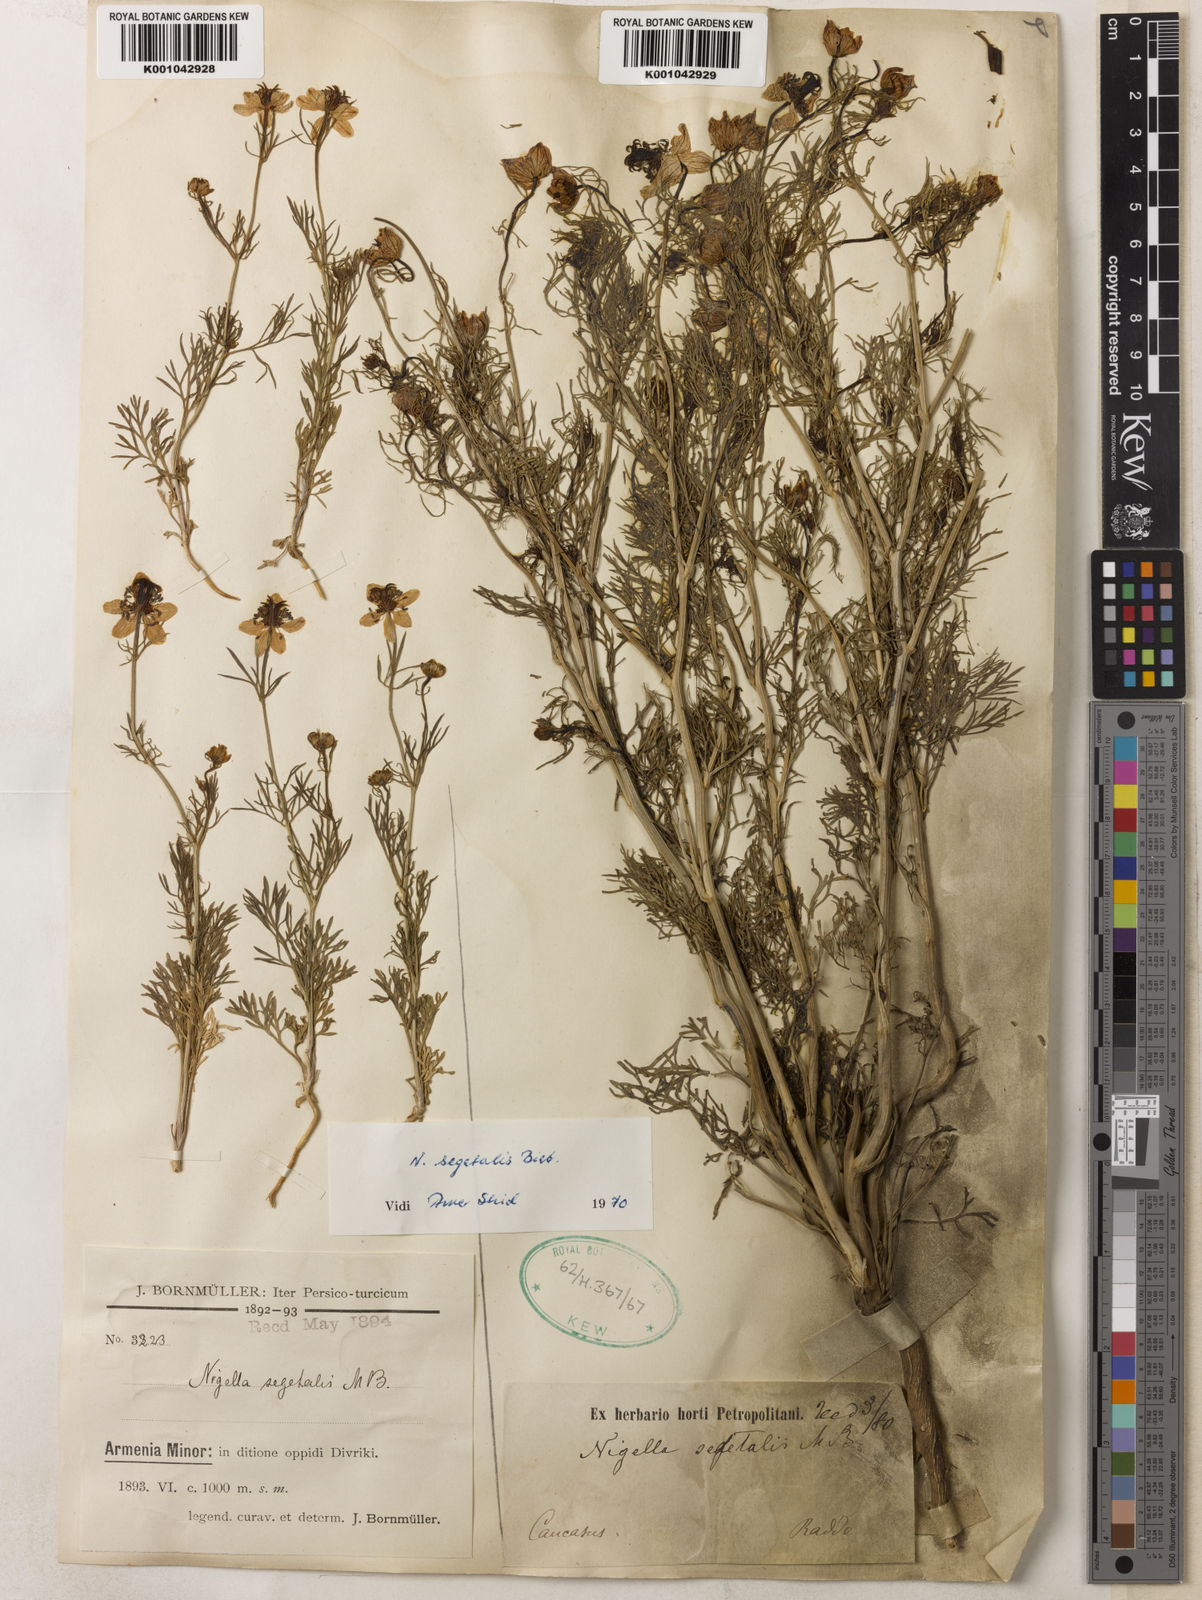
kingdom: Plantae
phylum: Tracheophyta
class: Magnoliopsida
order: Ranunculales
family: Ranunculaceae
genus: Nigella
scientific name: Nigella segetalis
